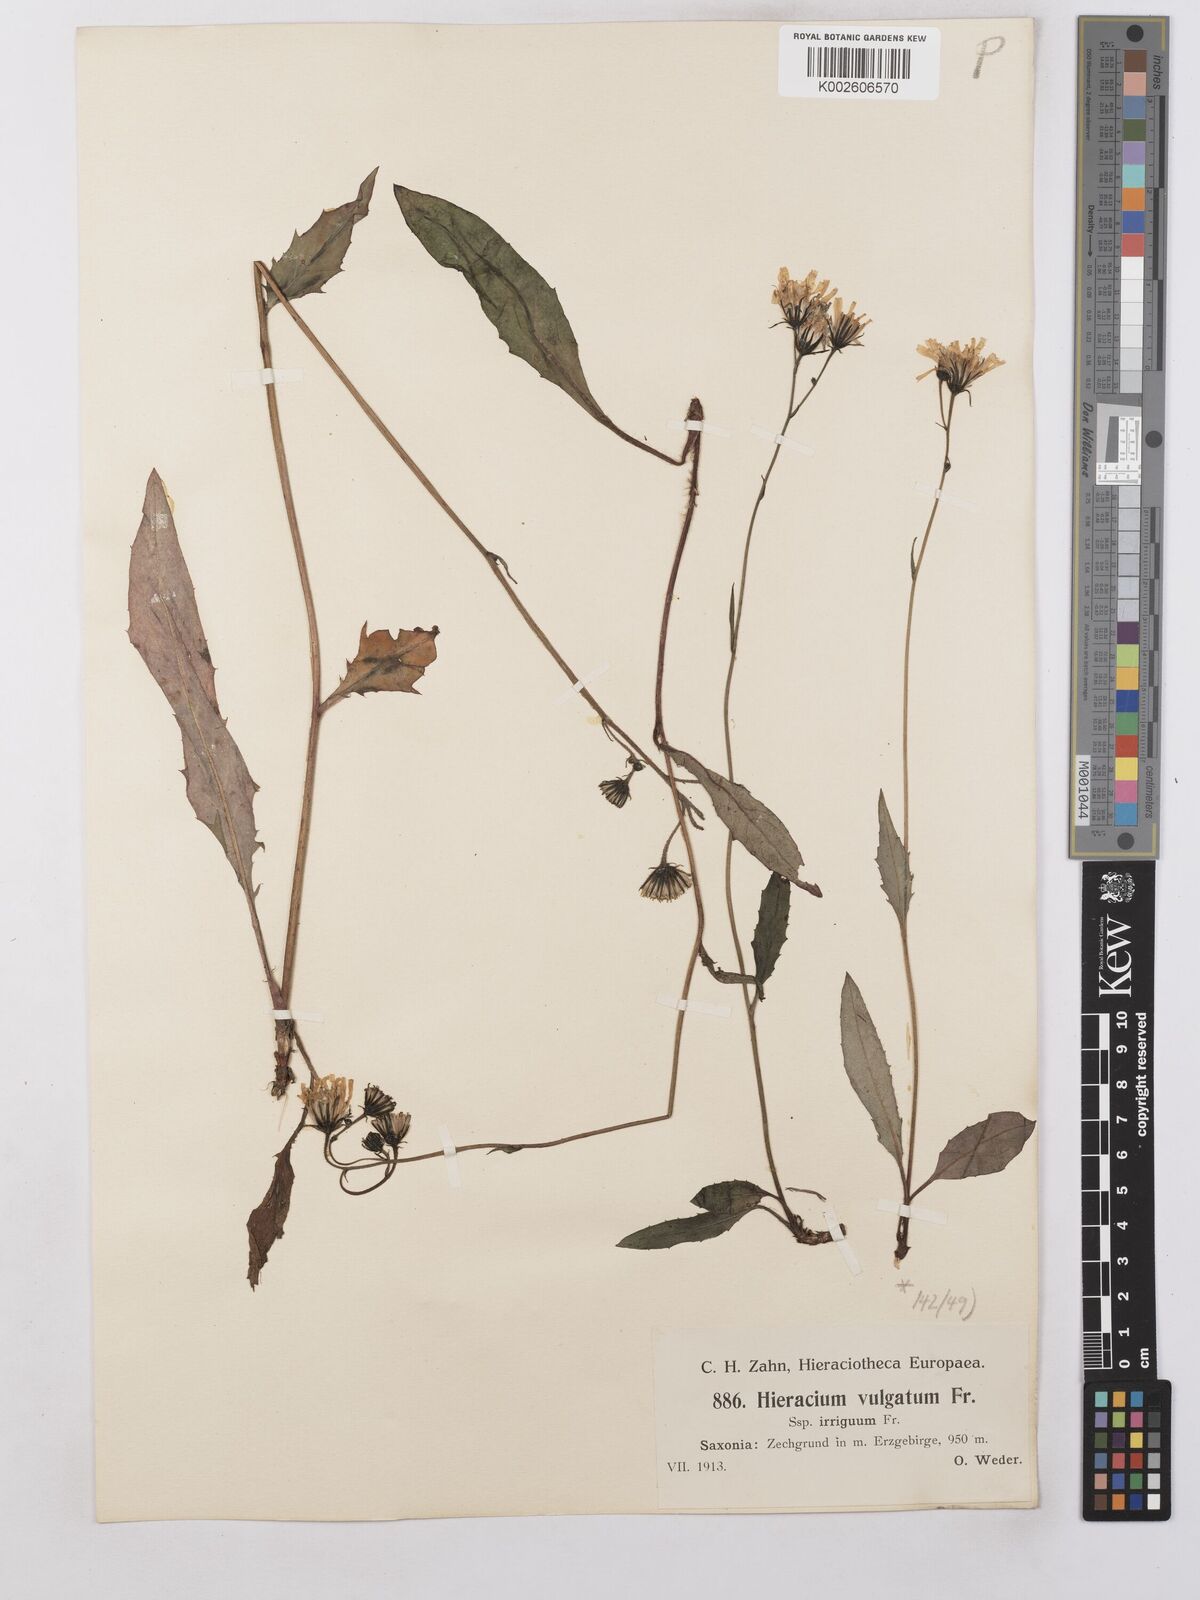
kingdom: Plantae
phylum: Tracheophyta
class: Magnoliopsida
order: Asterales
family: Asteraceae
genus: Hieracium
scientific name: Hieracium lachenalii
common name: Common hawkweed
